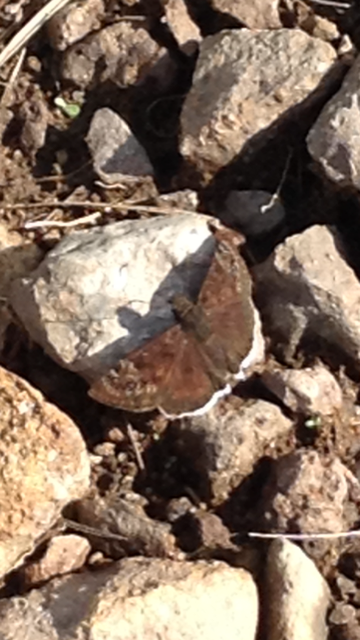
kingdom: Animalia
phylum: Arthropoda
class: Insecta
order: Lepidoptera
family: Hesperiidae
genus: Erynnis
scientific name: Erynnis
